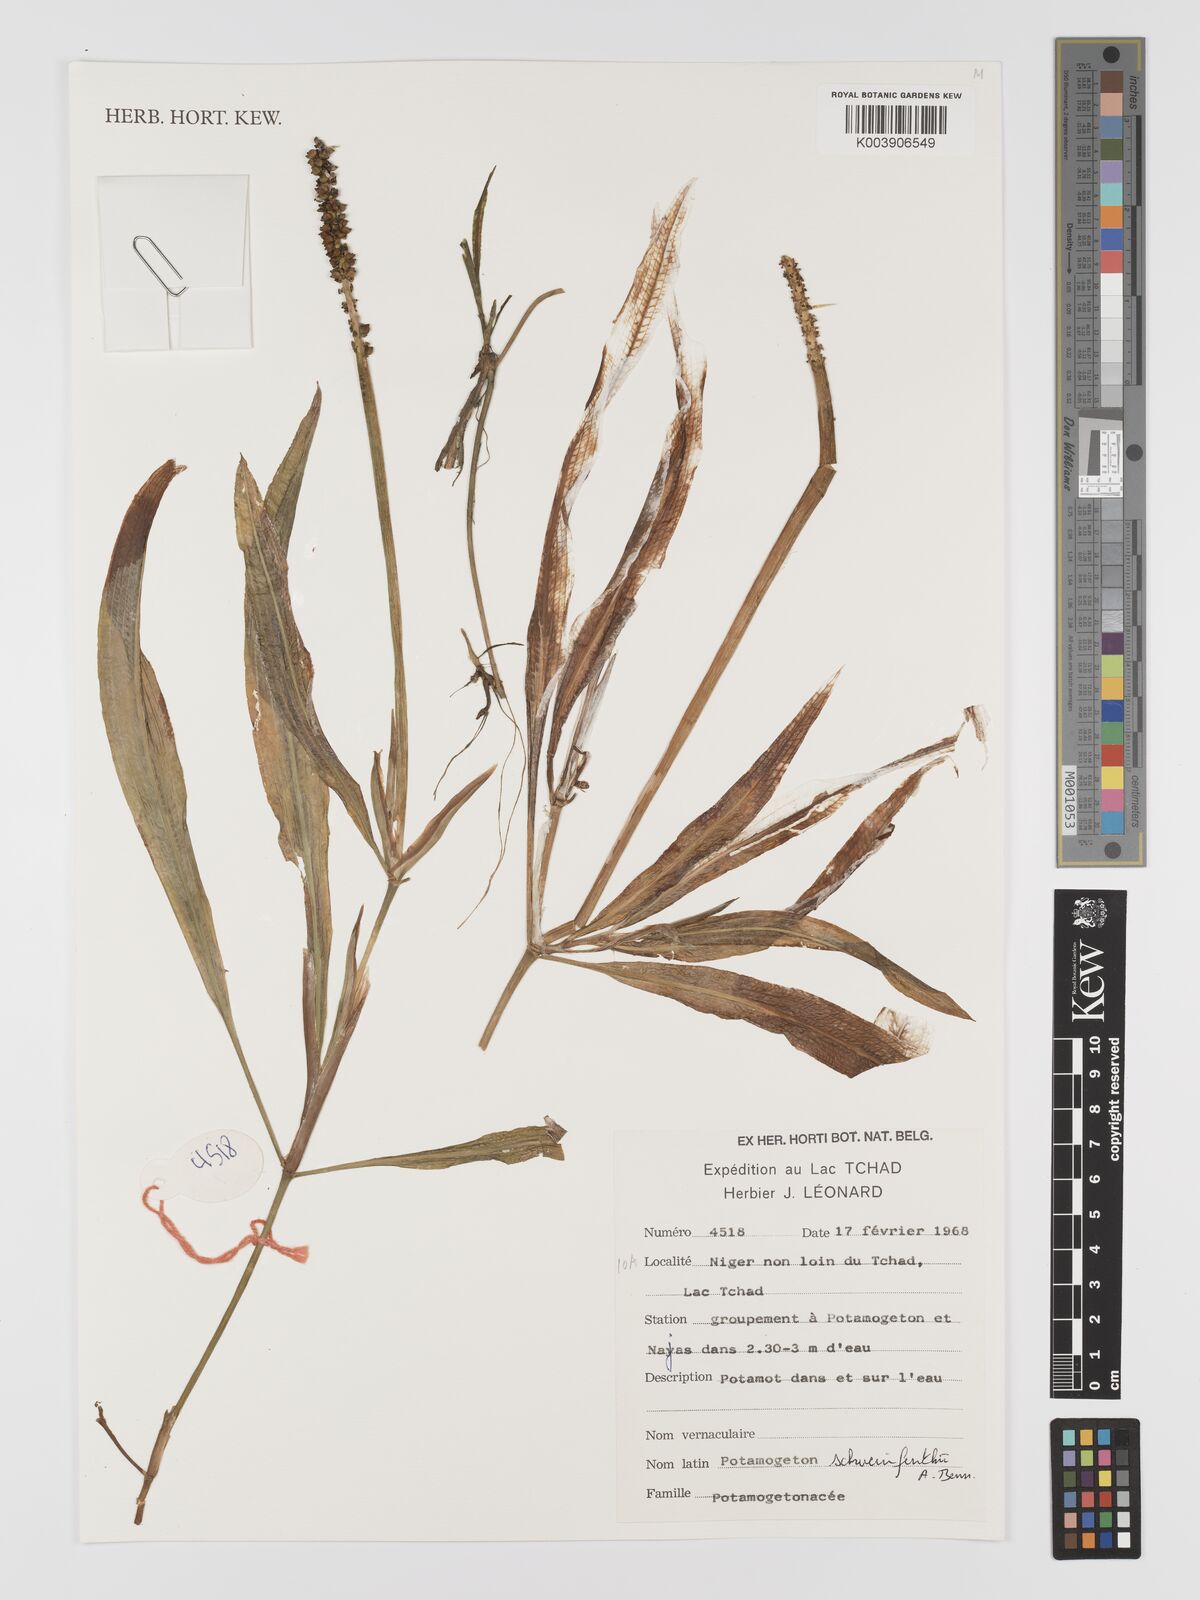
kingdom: Plantae
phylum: Tracheophyta
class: Liliopsida
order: Alismatales
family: Potamogetonaceae
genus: Potamogeton
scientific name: Potamogeton schweinfurthii
